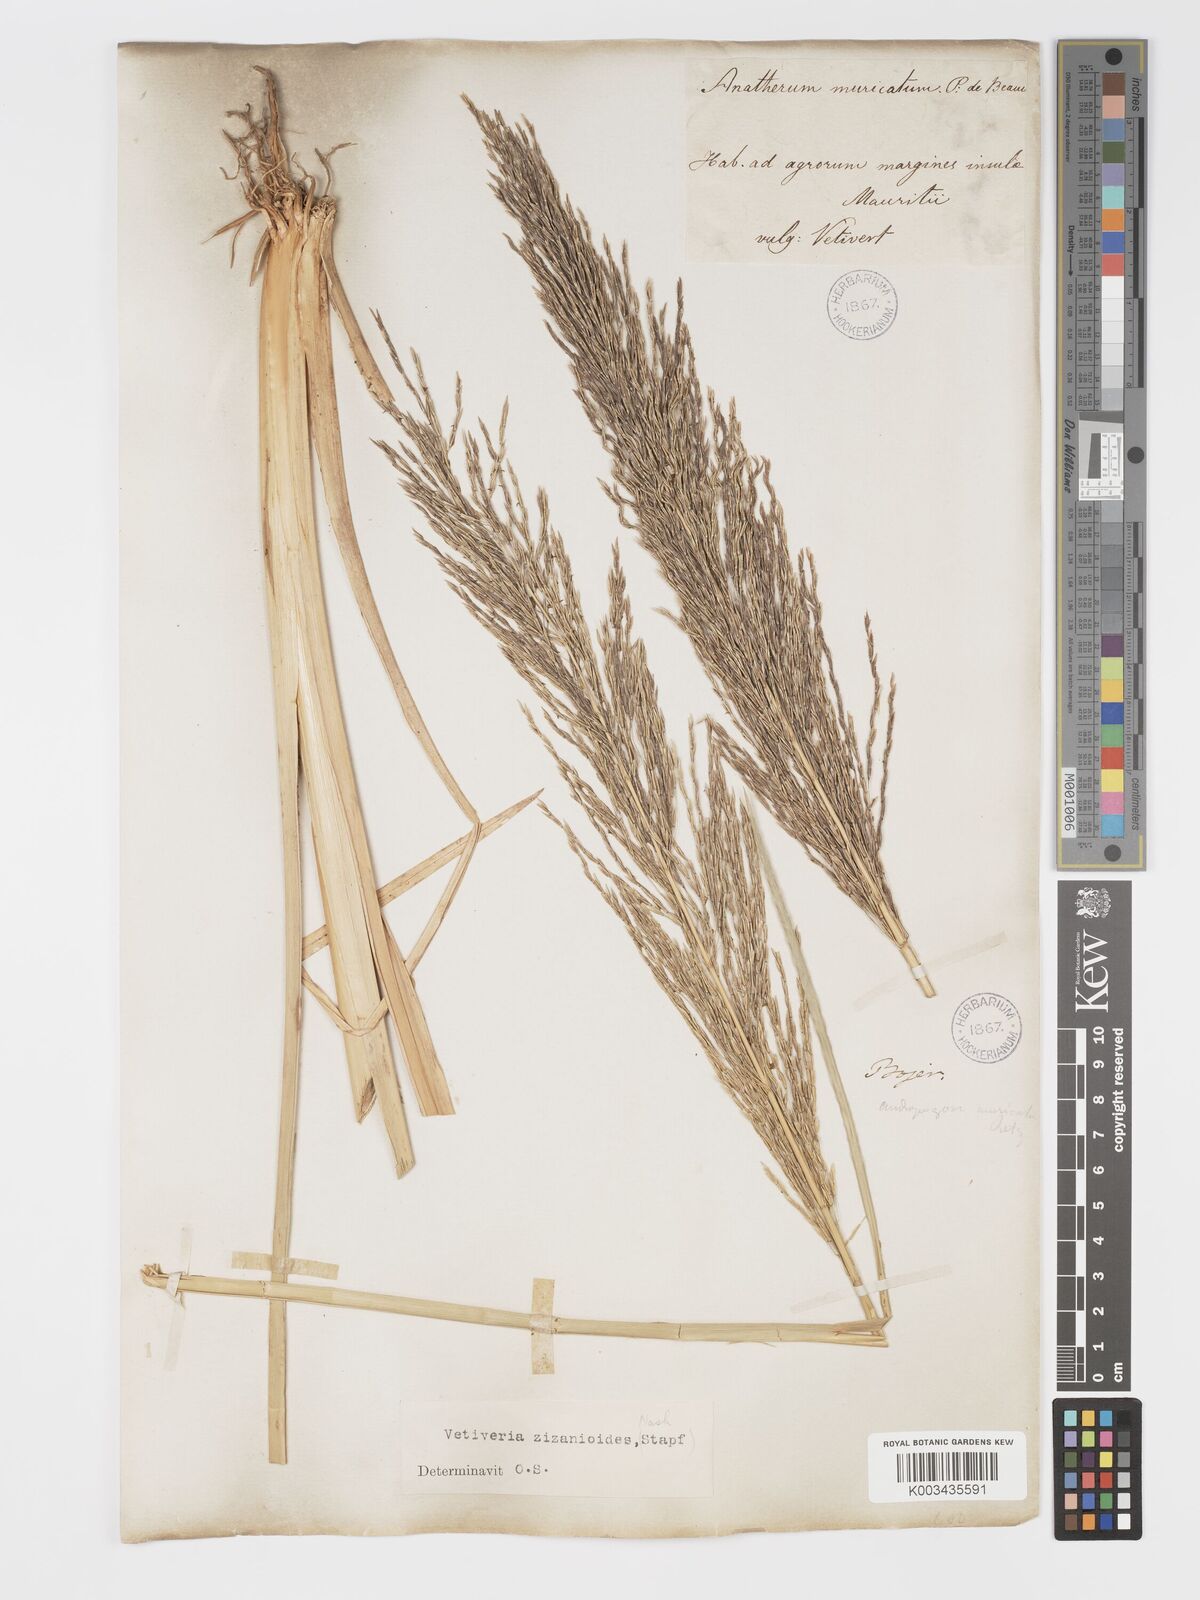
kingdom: Plantae
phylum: Tracheophyta
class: Liliopsida
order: Poales
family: Poaceae
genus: Chrysopogon
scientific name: Chrysopogon zizanioides
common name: False beardgrass
